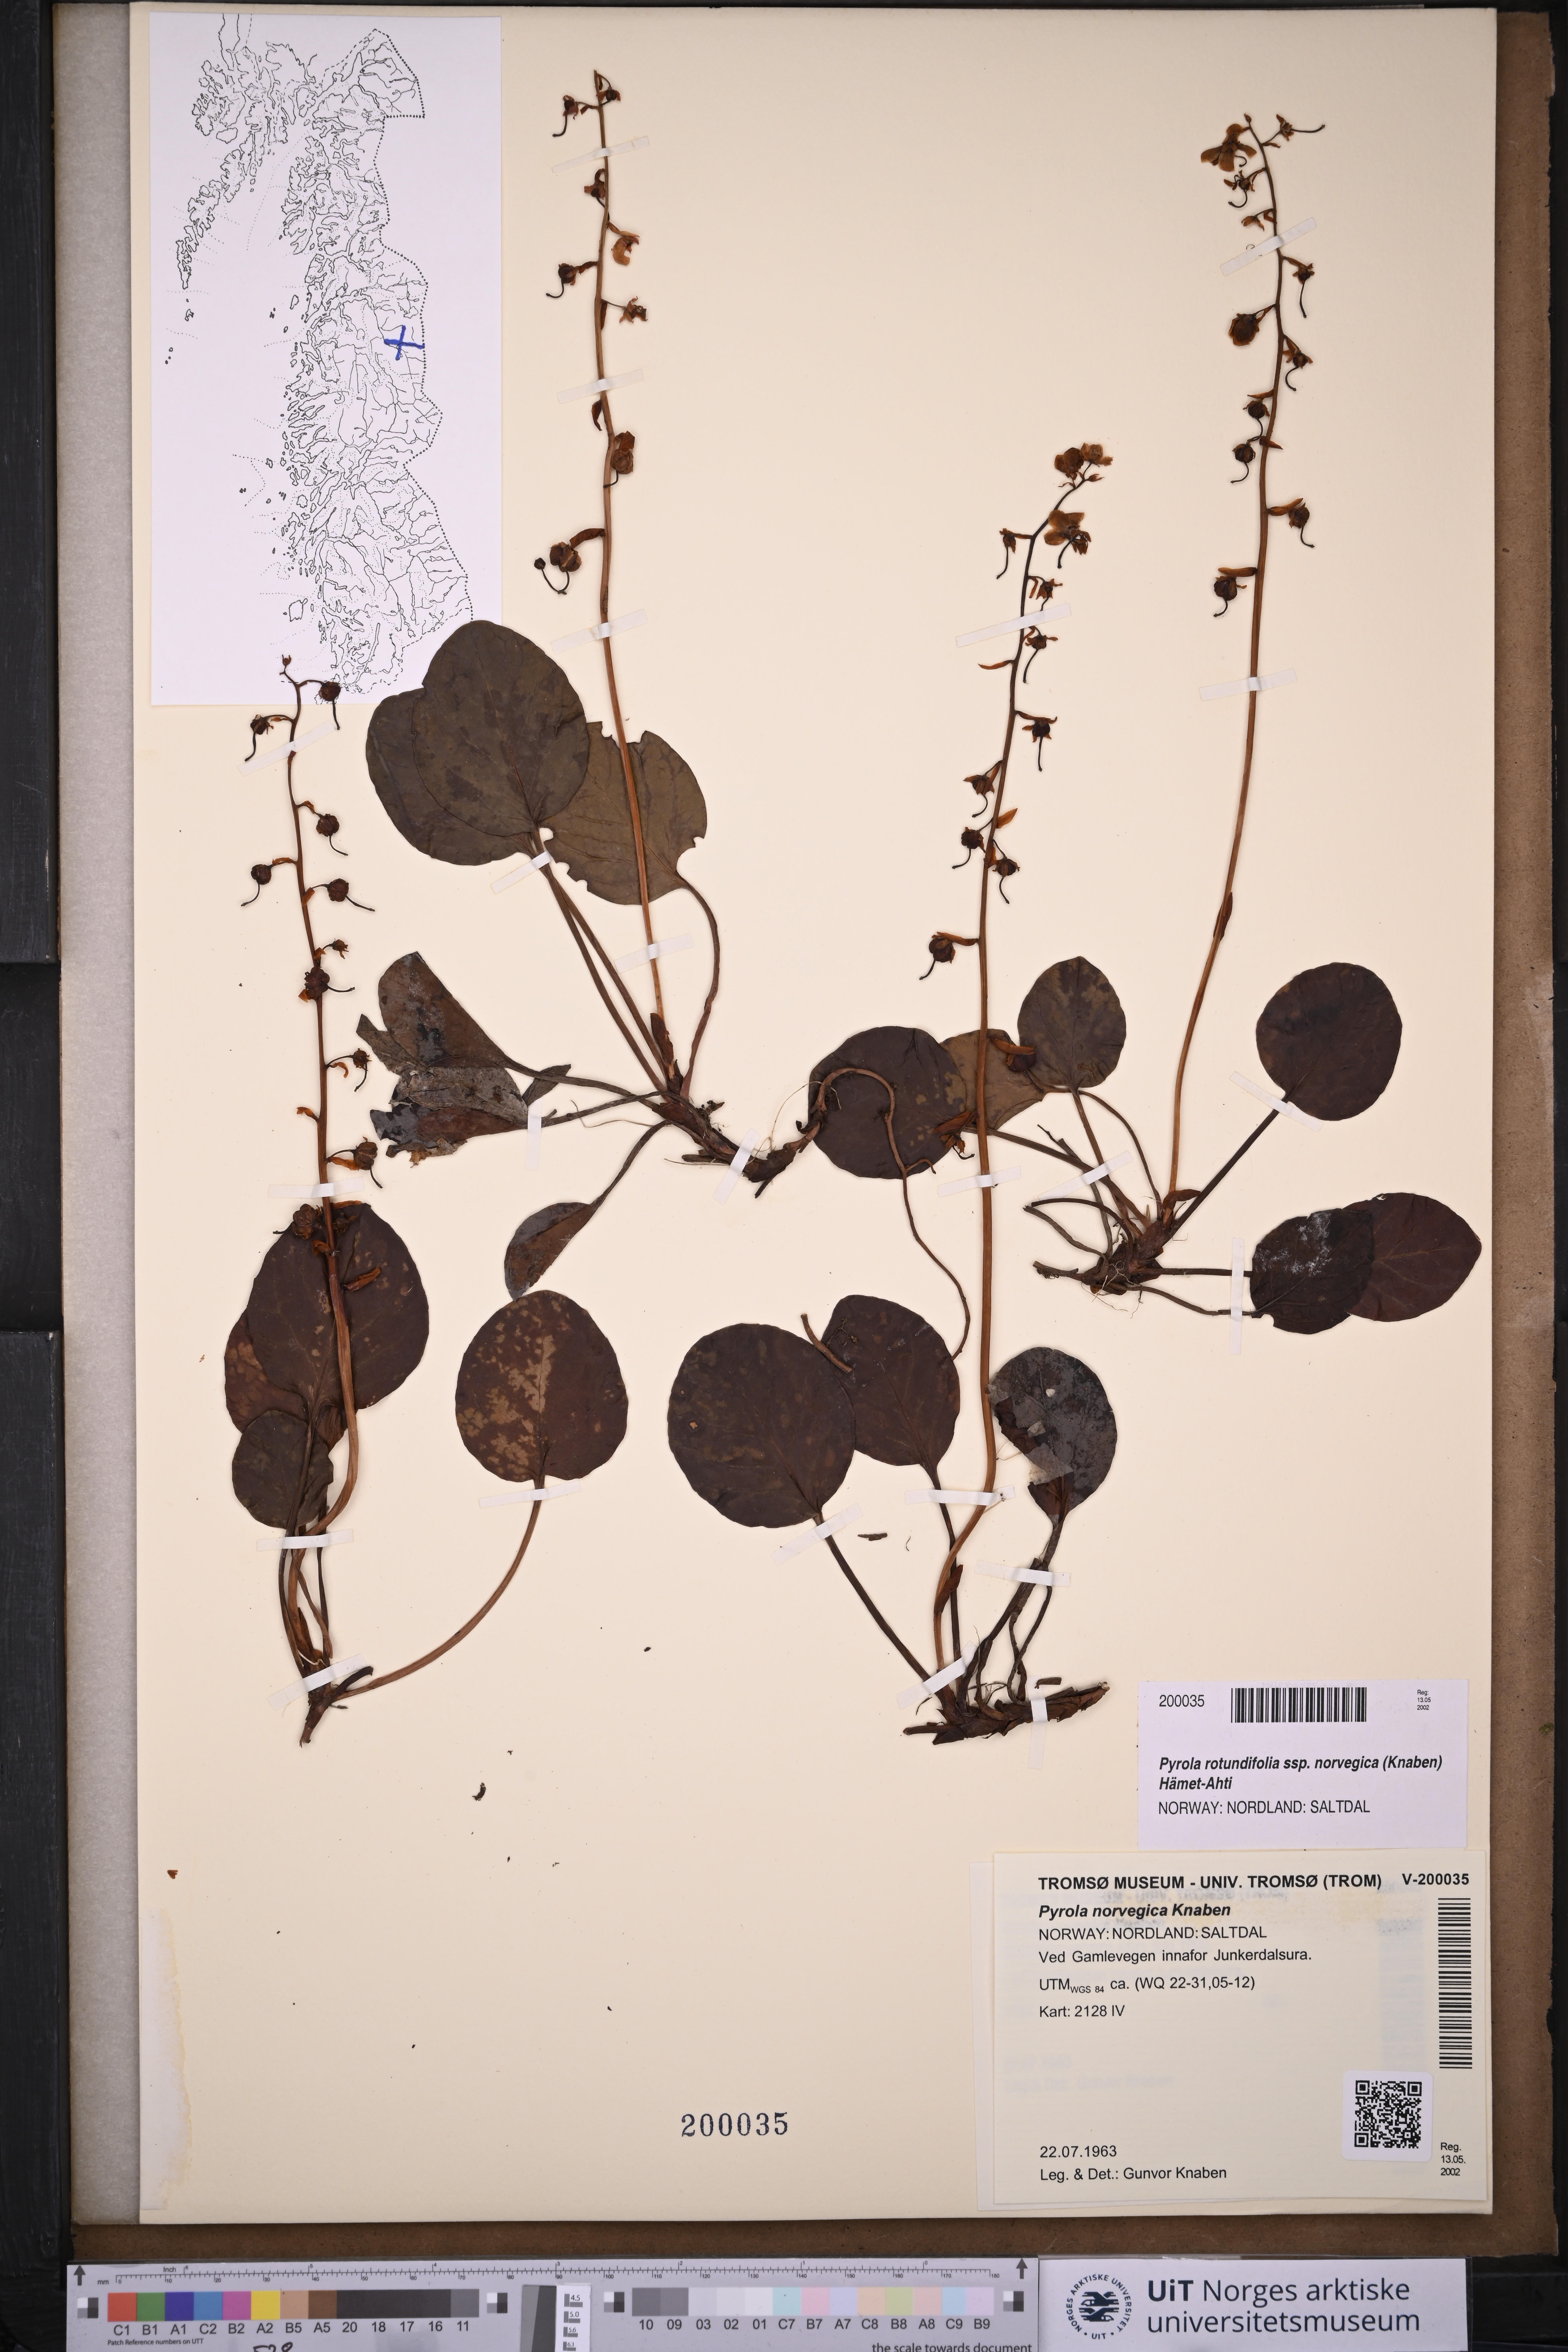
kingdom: Plantae
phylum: Tracheophyta
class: Magnoliopsida
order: Ericales
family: Ericaceae
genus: Pyrola
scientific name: Pyrola rotundifolia
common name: Round-leaved wintergreen
